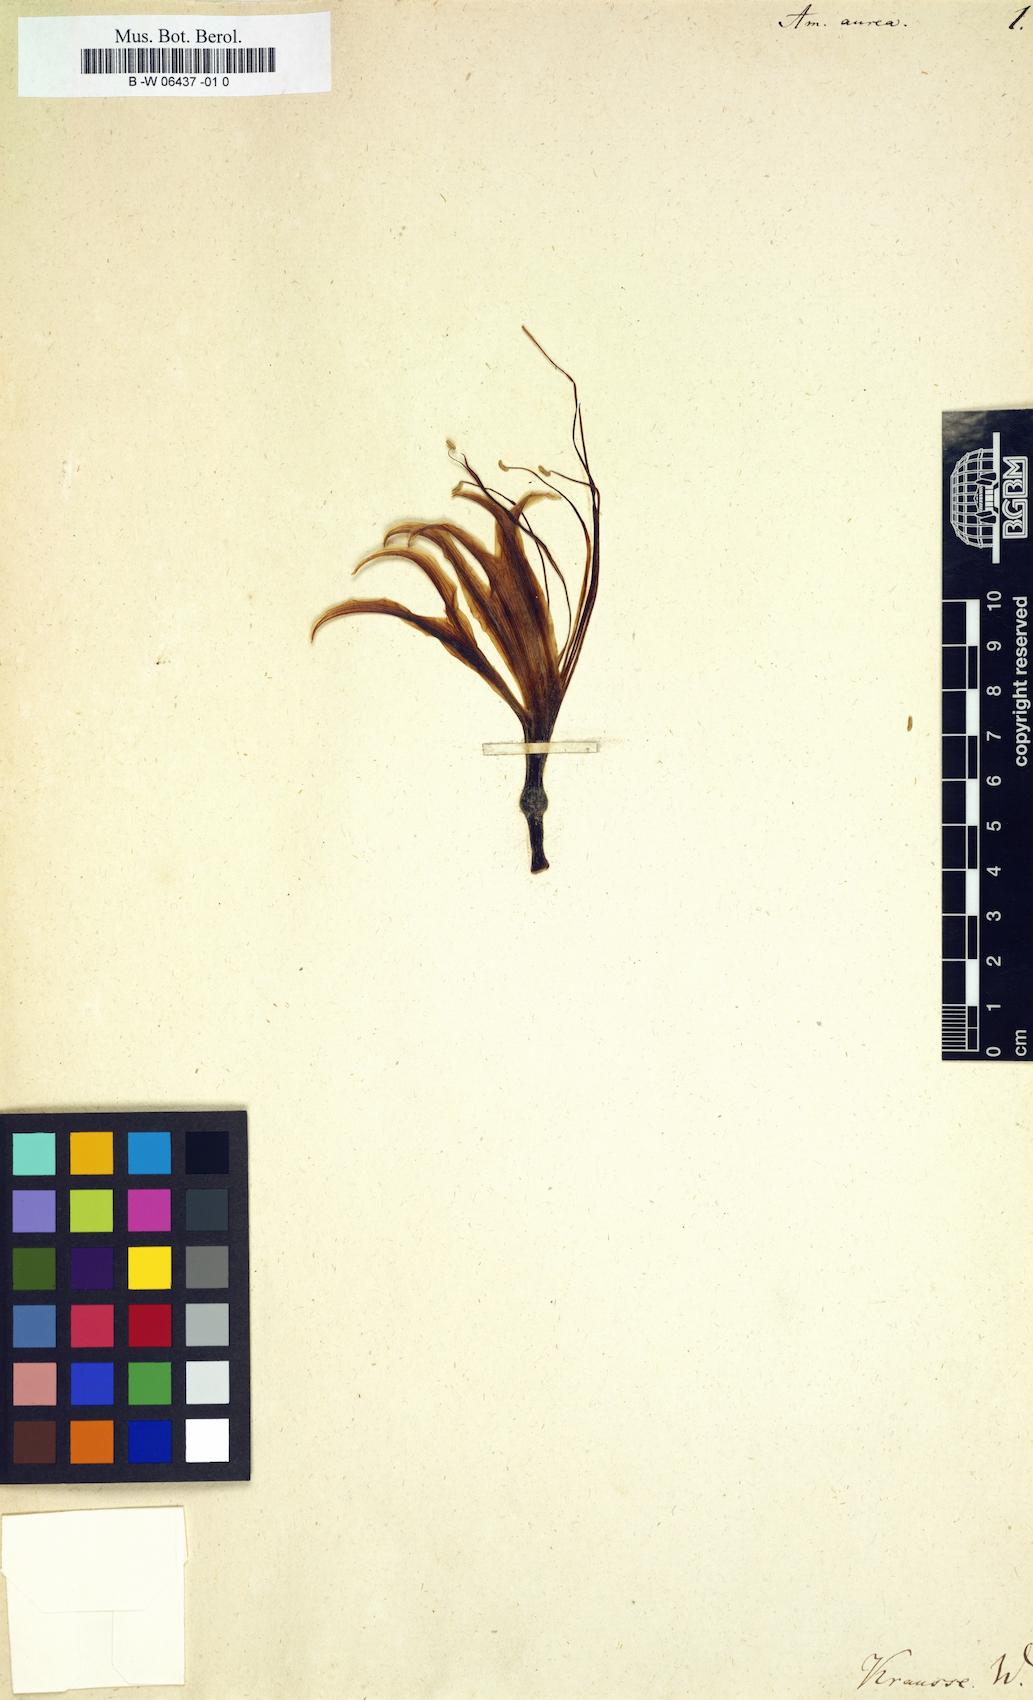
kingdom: Plantae
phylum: Tracheophyta
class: Liliopsida
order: Asparagales
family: Amaryllidaceae
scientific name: Amaryllidaceae
